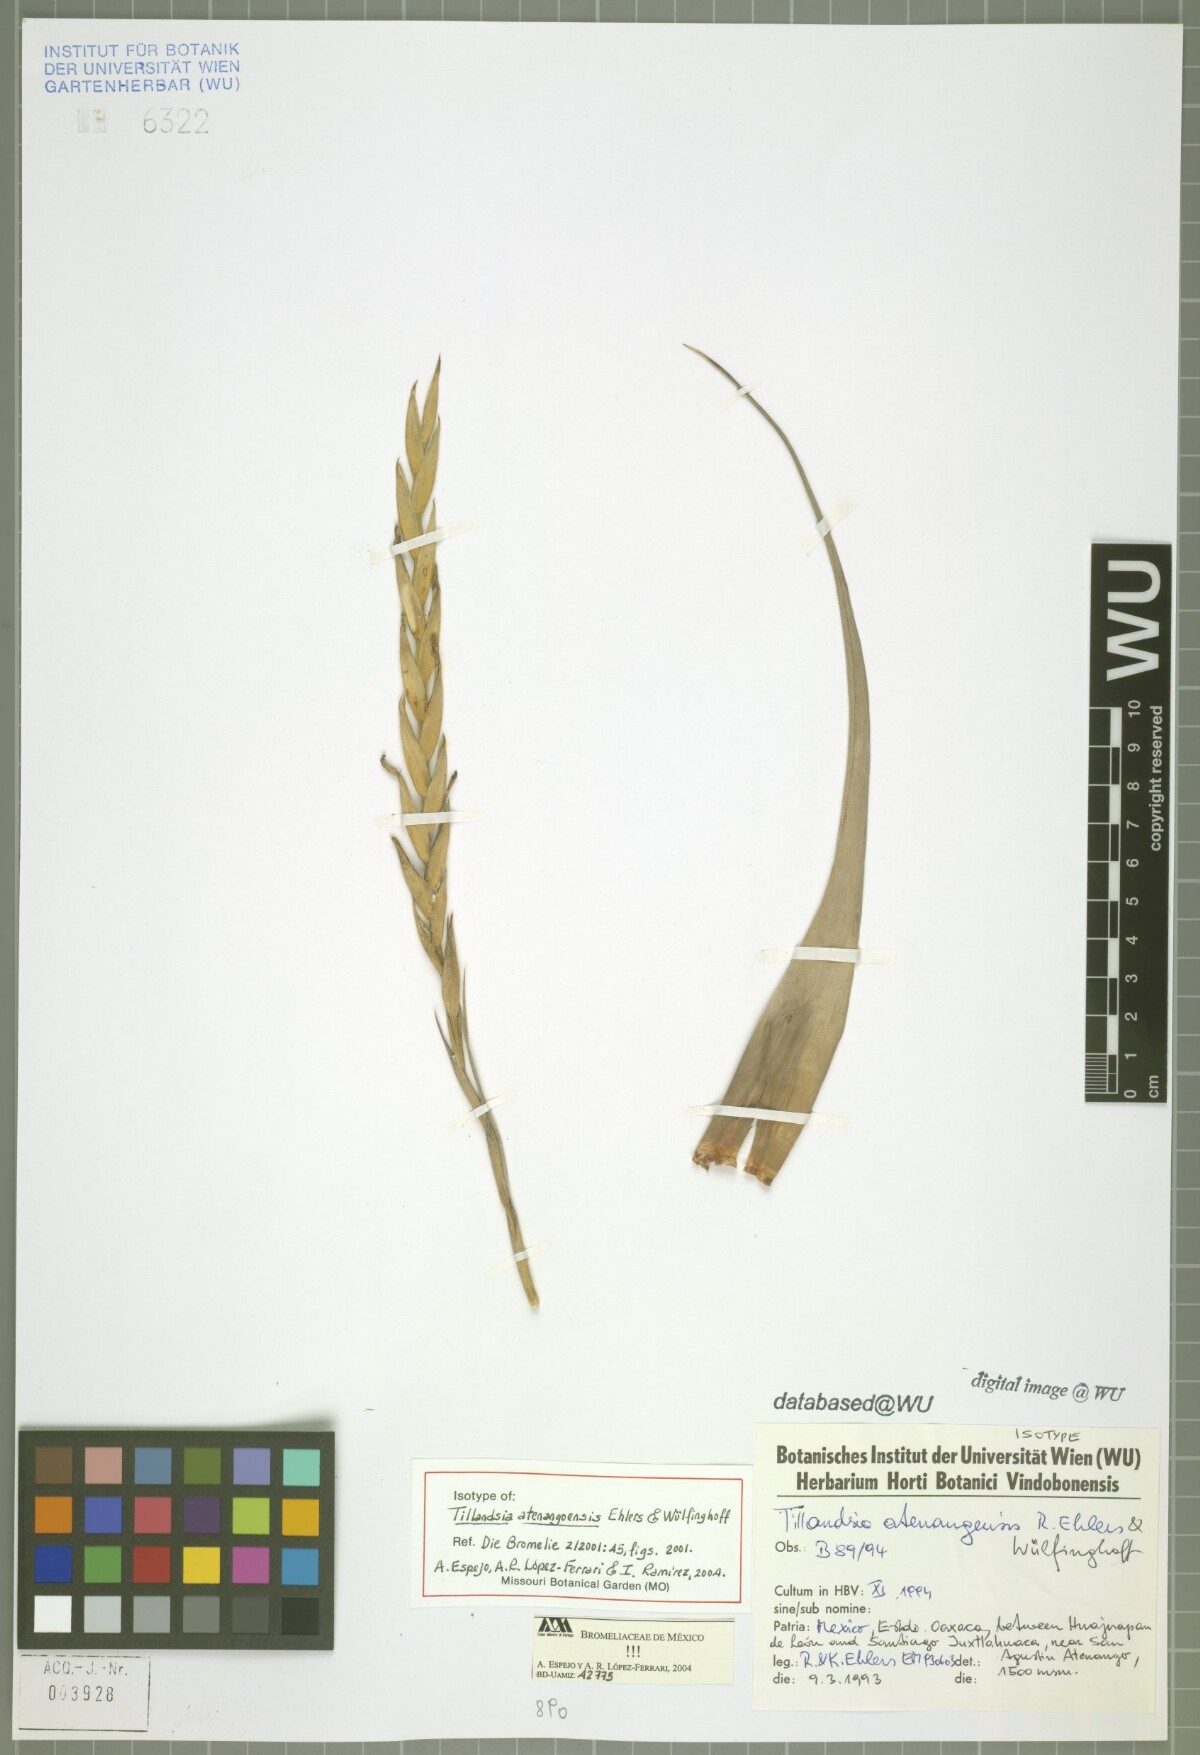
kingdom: Plantae
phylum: Tracheophyta
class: Liliopsida
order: Poales
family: Bromeliaceae
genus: Tillandsia
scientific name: Tillandsia atenangoensis
